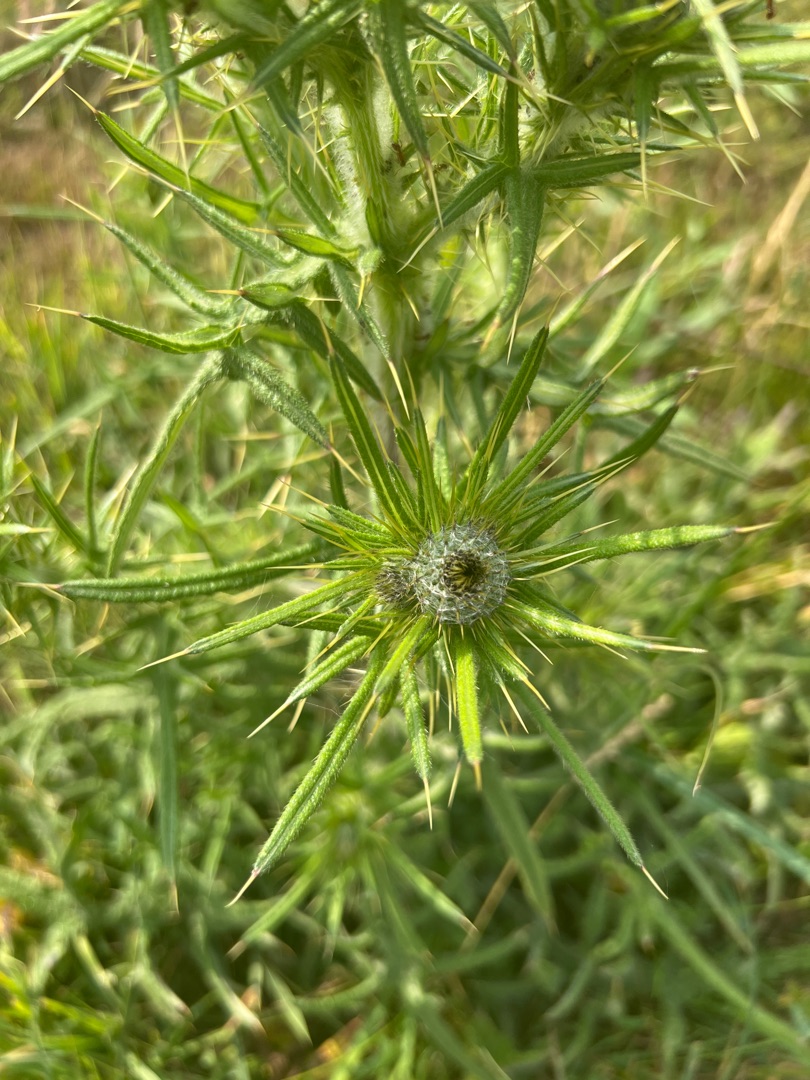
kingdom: Plantae
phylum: Tracheophyta
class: Magnoliopsida
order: Asterales
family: Asteraceae
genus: Cirsium
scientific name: Cirsium vulgare
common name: Horse-tidsel
